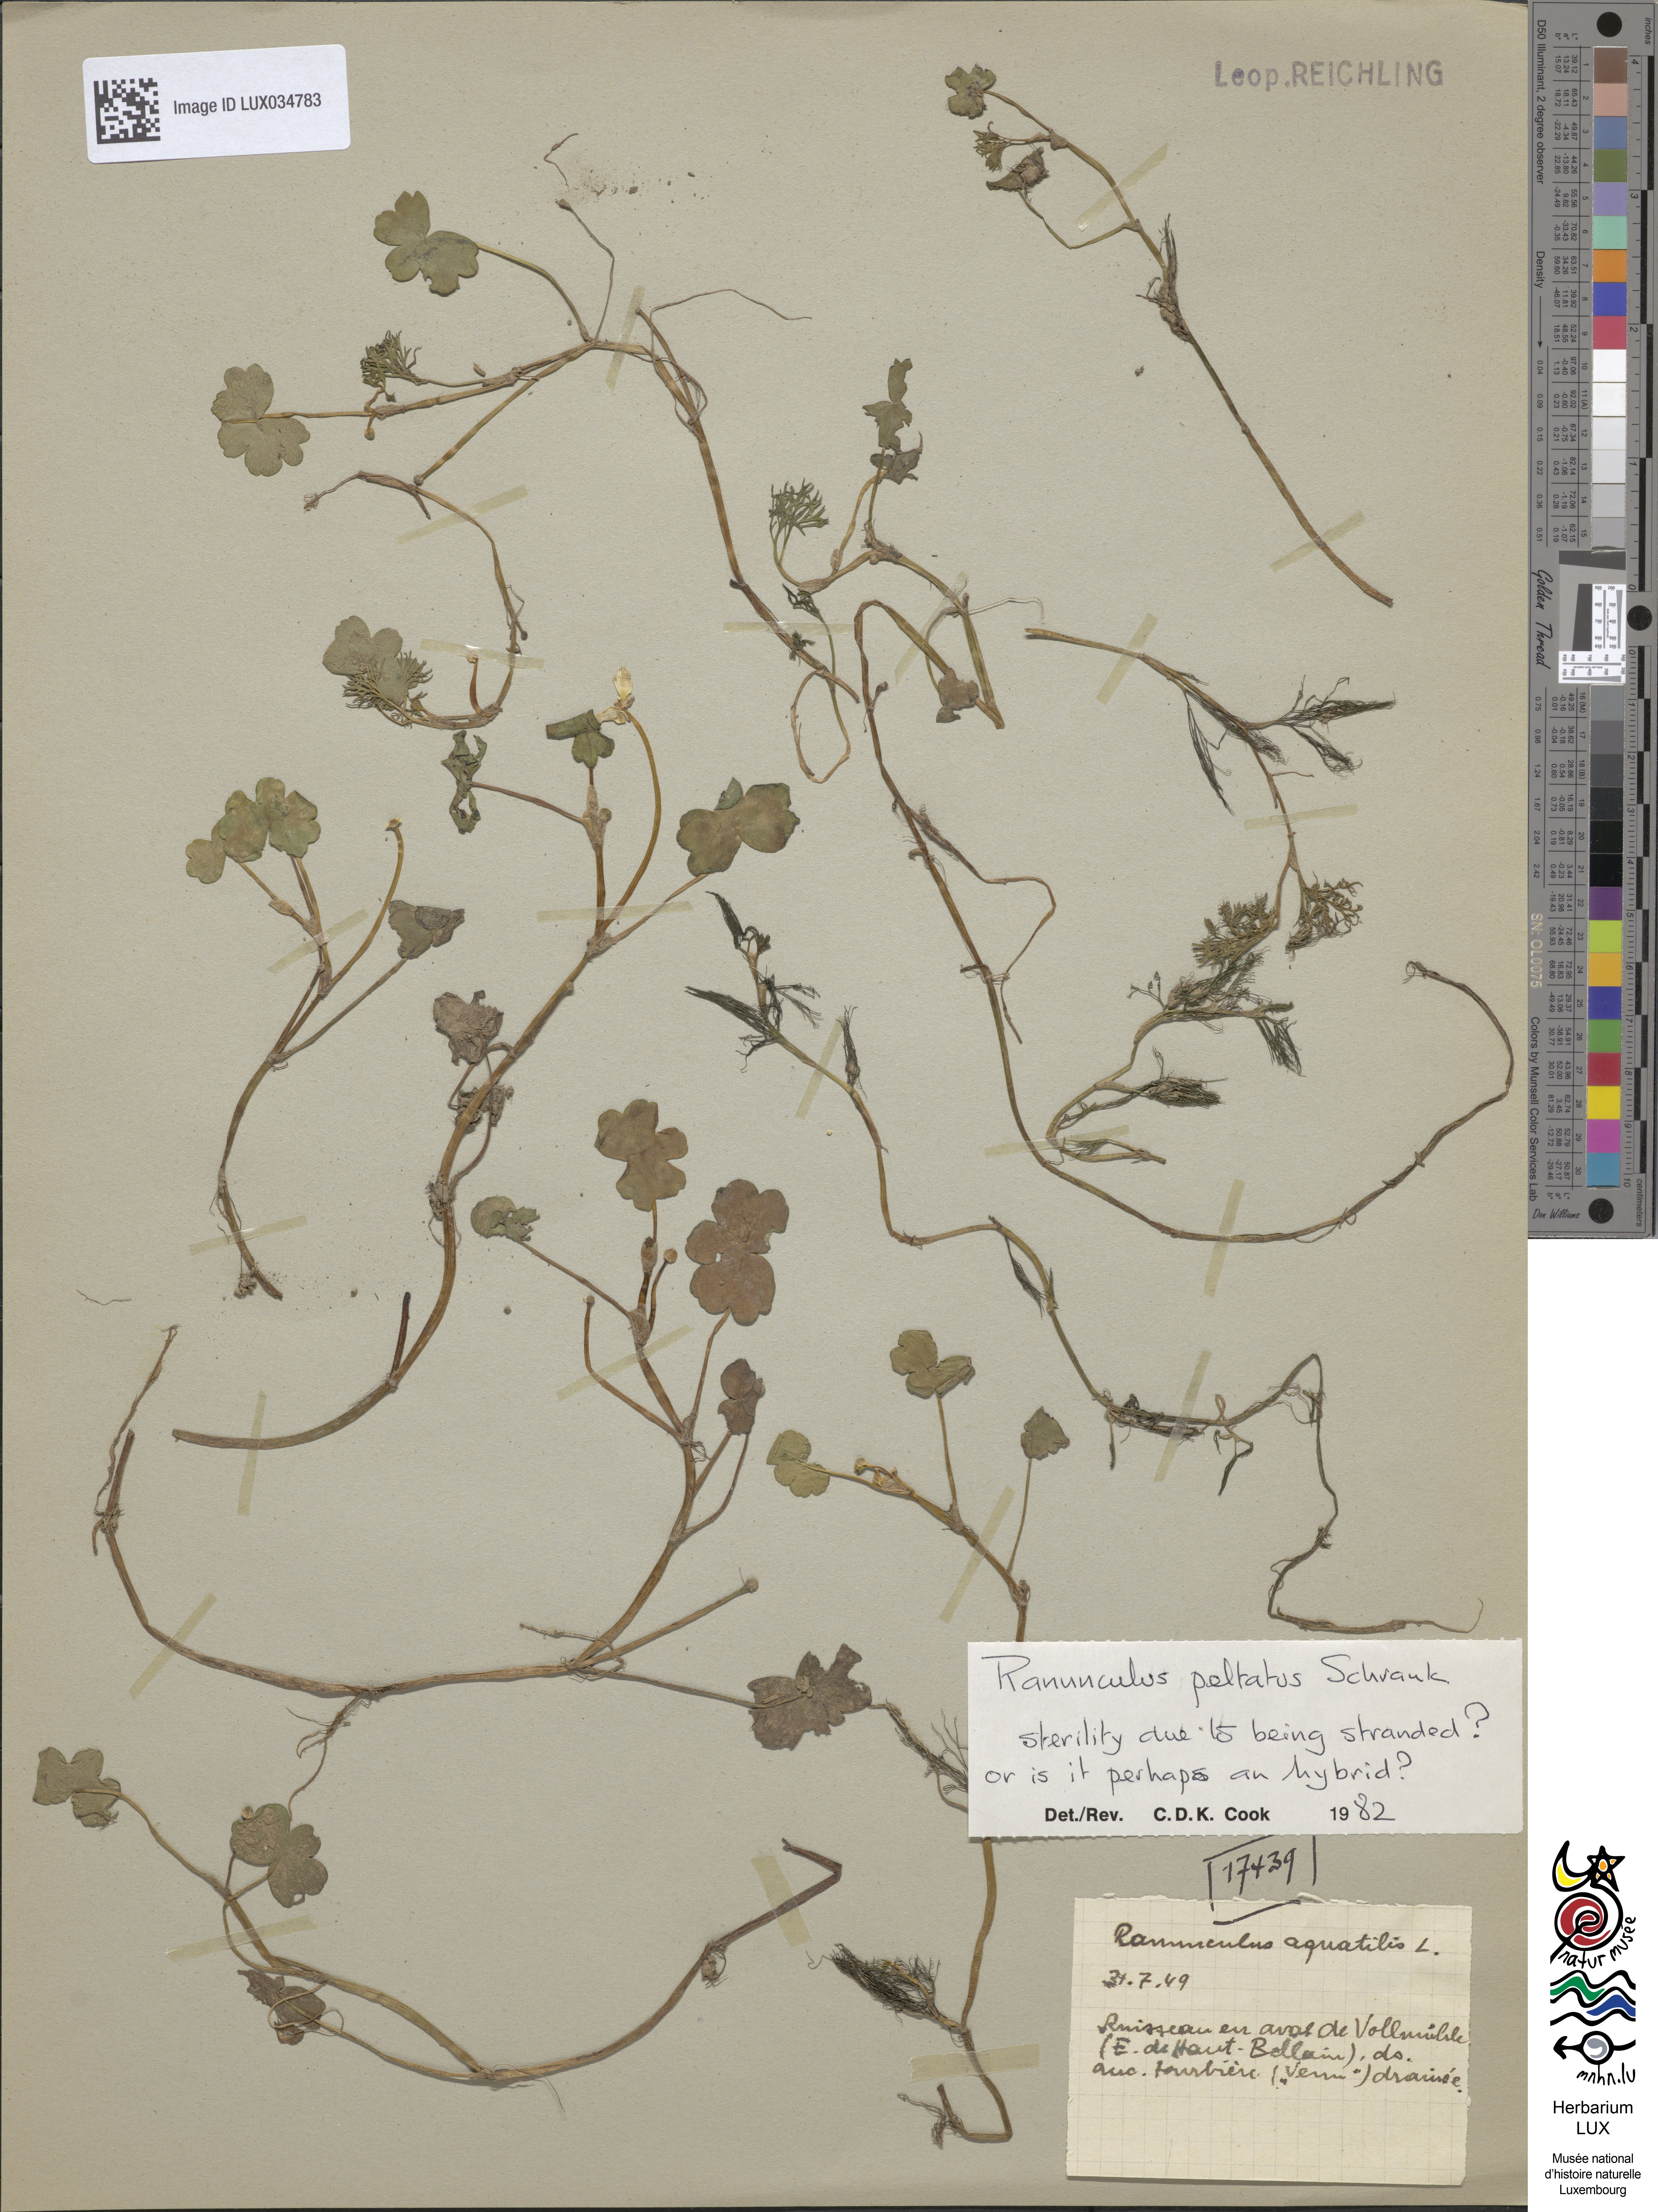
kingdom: Plantae
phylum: Tracheophyta
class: Magnoliopsida
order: Ranunculales
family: Ranunculaceae
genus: Ranunculus
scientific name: Ranunculus aquatilis
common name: Common water-crowfoot
